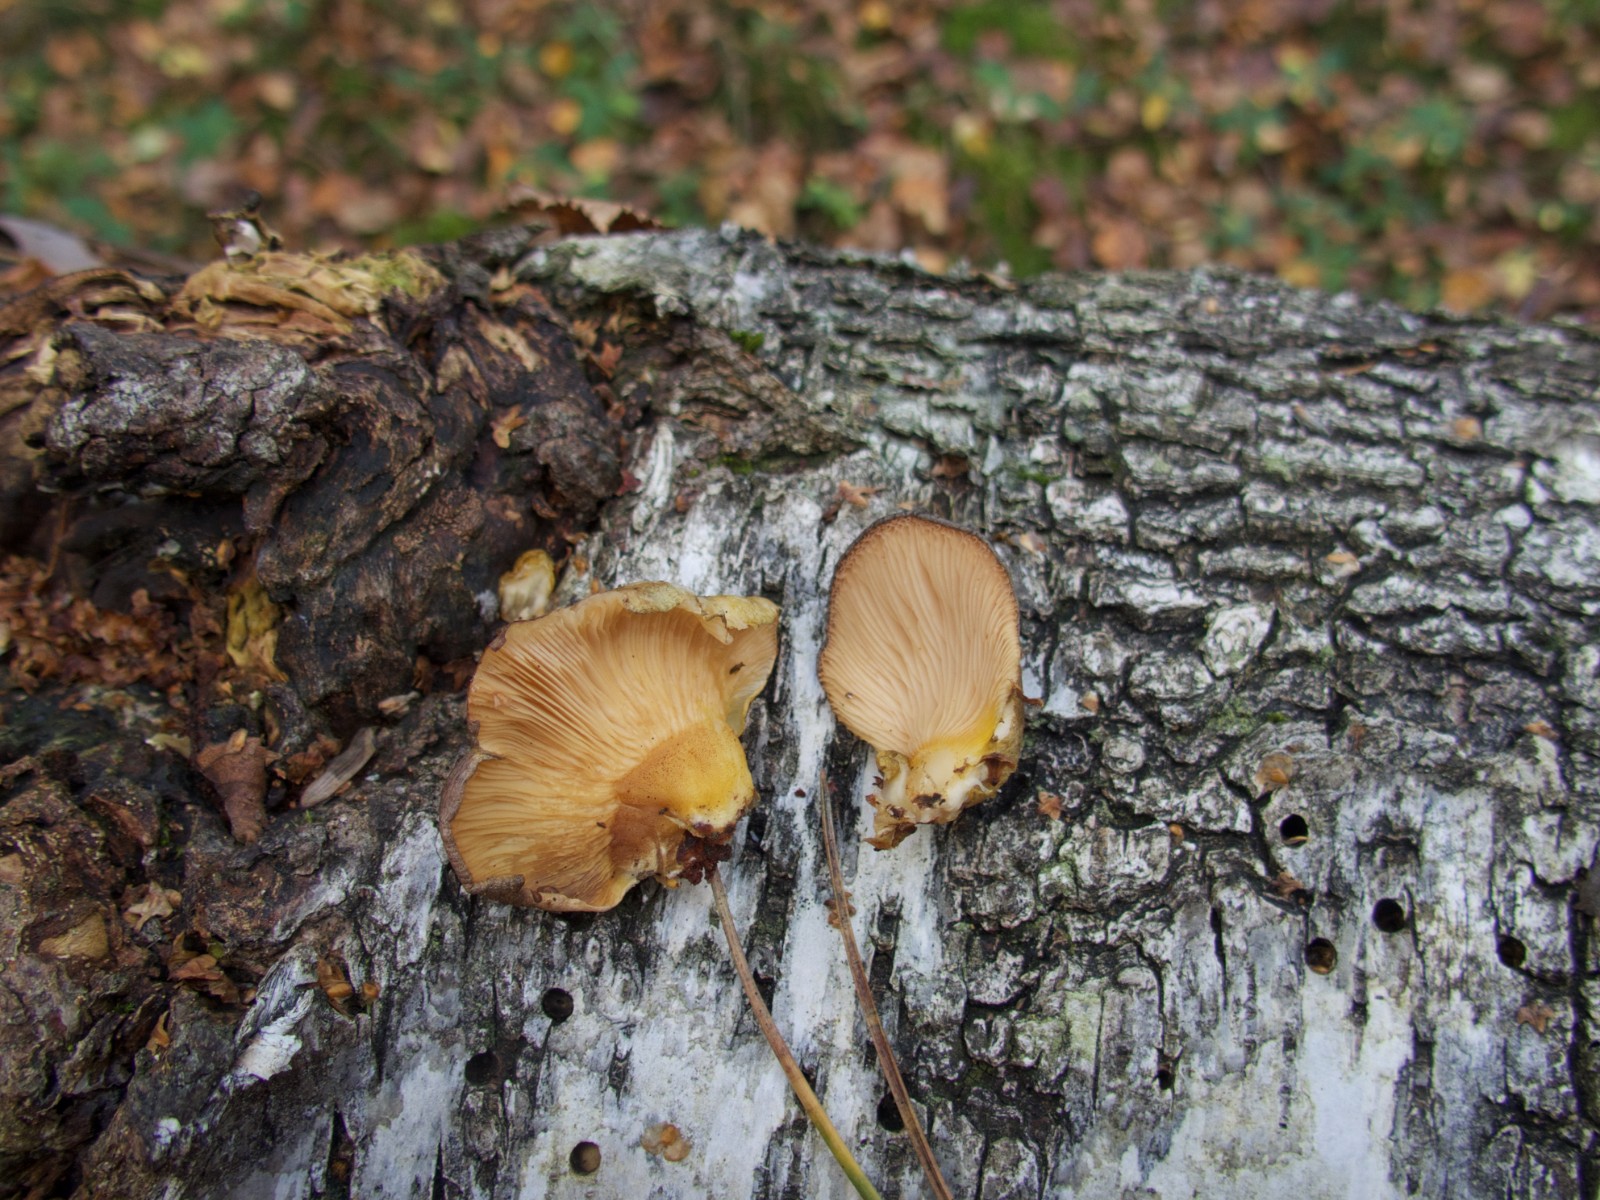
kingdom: Fungi
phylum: Basidiomycota
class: Agaricomycetes
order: Agaricales
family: Sarcomyxaceae
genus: Sarcomyxa
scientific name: Sarcomyxa serotina
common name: gummihat
